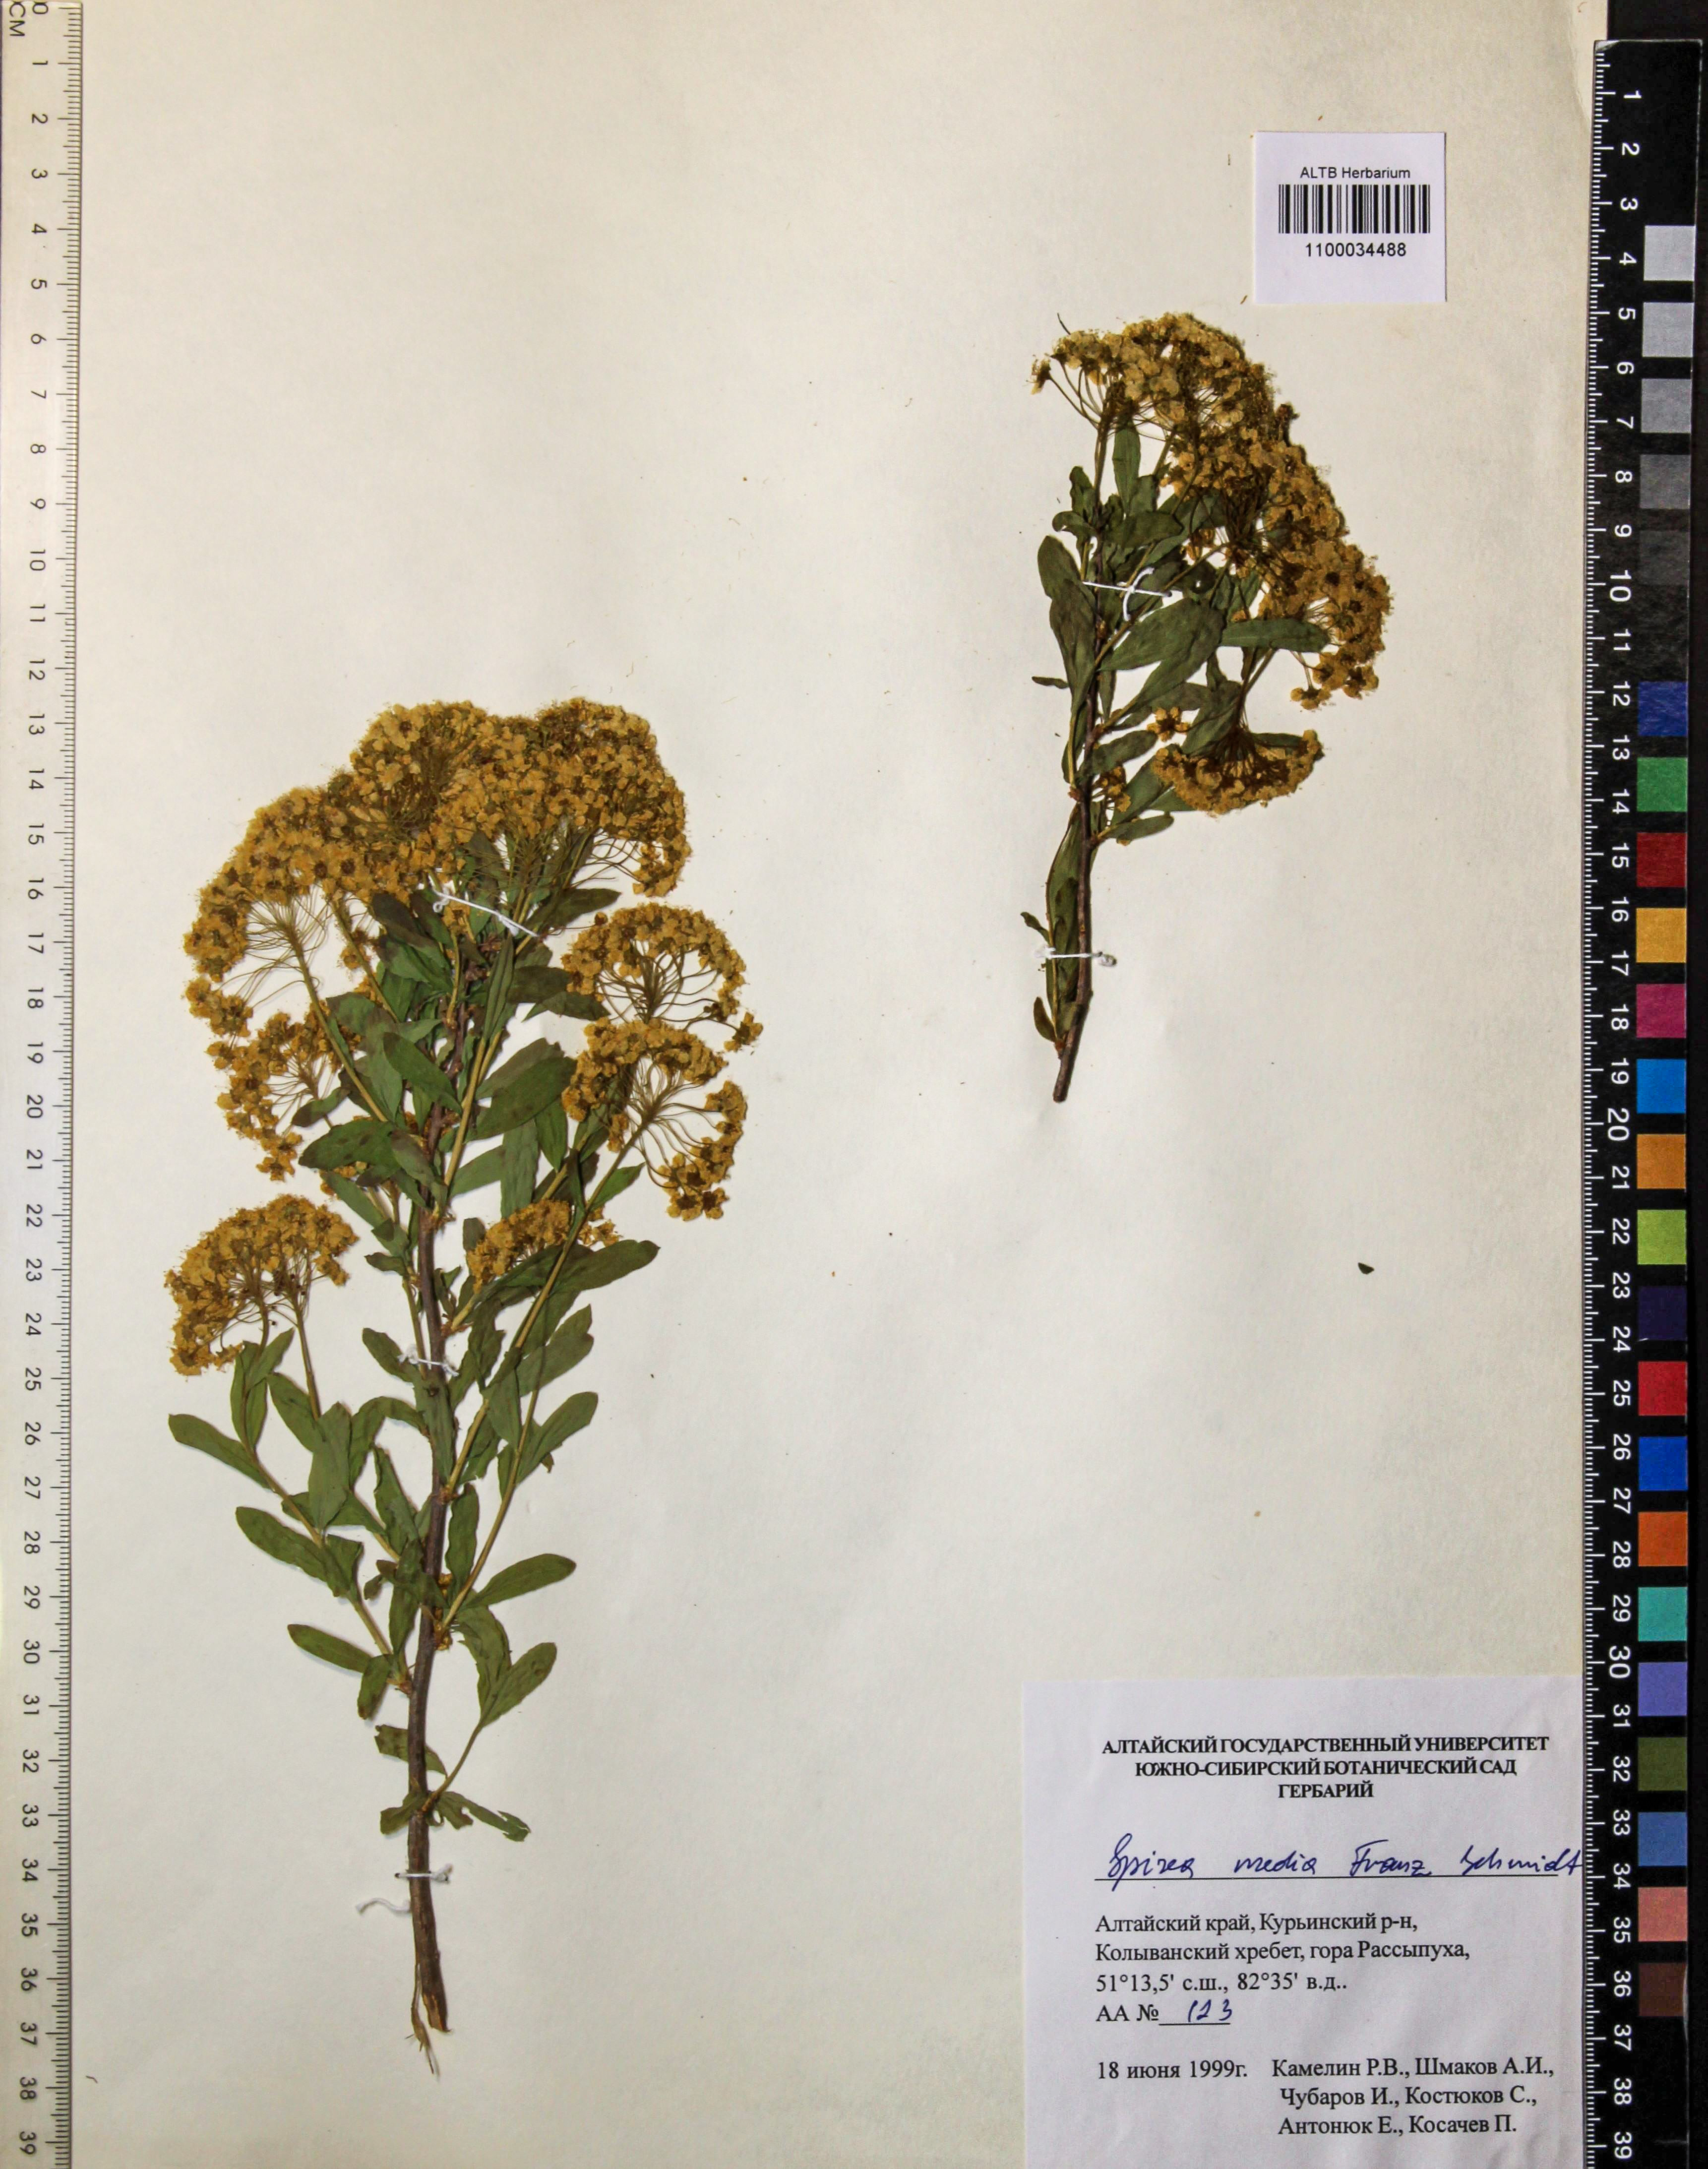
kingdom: Plantae
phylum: Tracheophyta
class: Magnoliopsida
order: Rosales
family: Rosaceae
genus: Spiraea
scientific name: Spiraea media
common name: Russian spiraea
